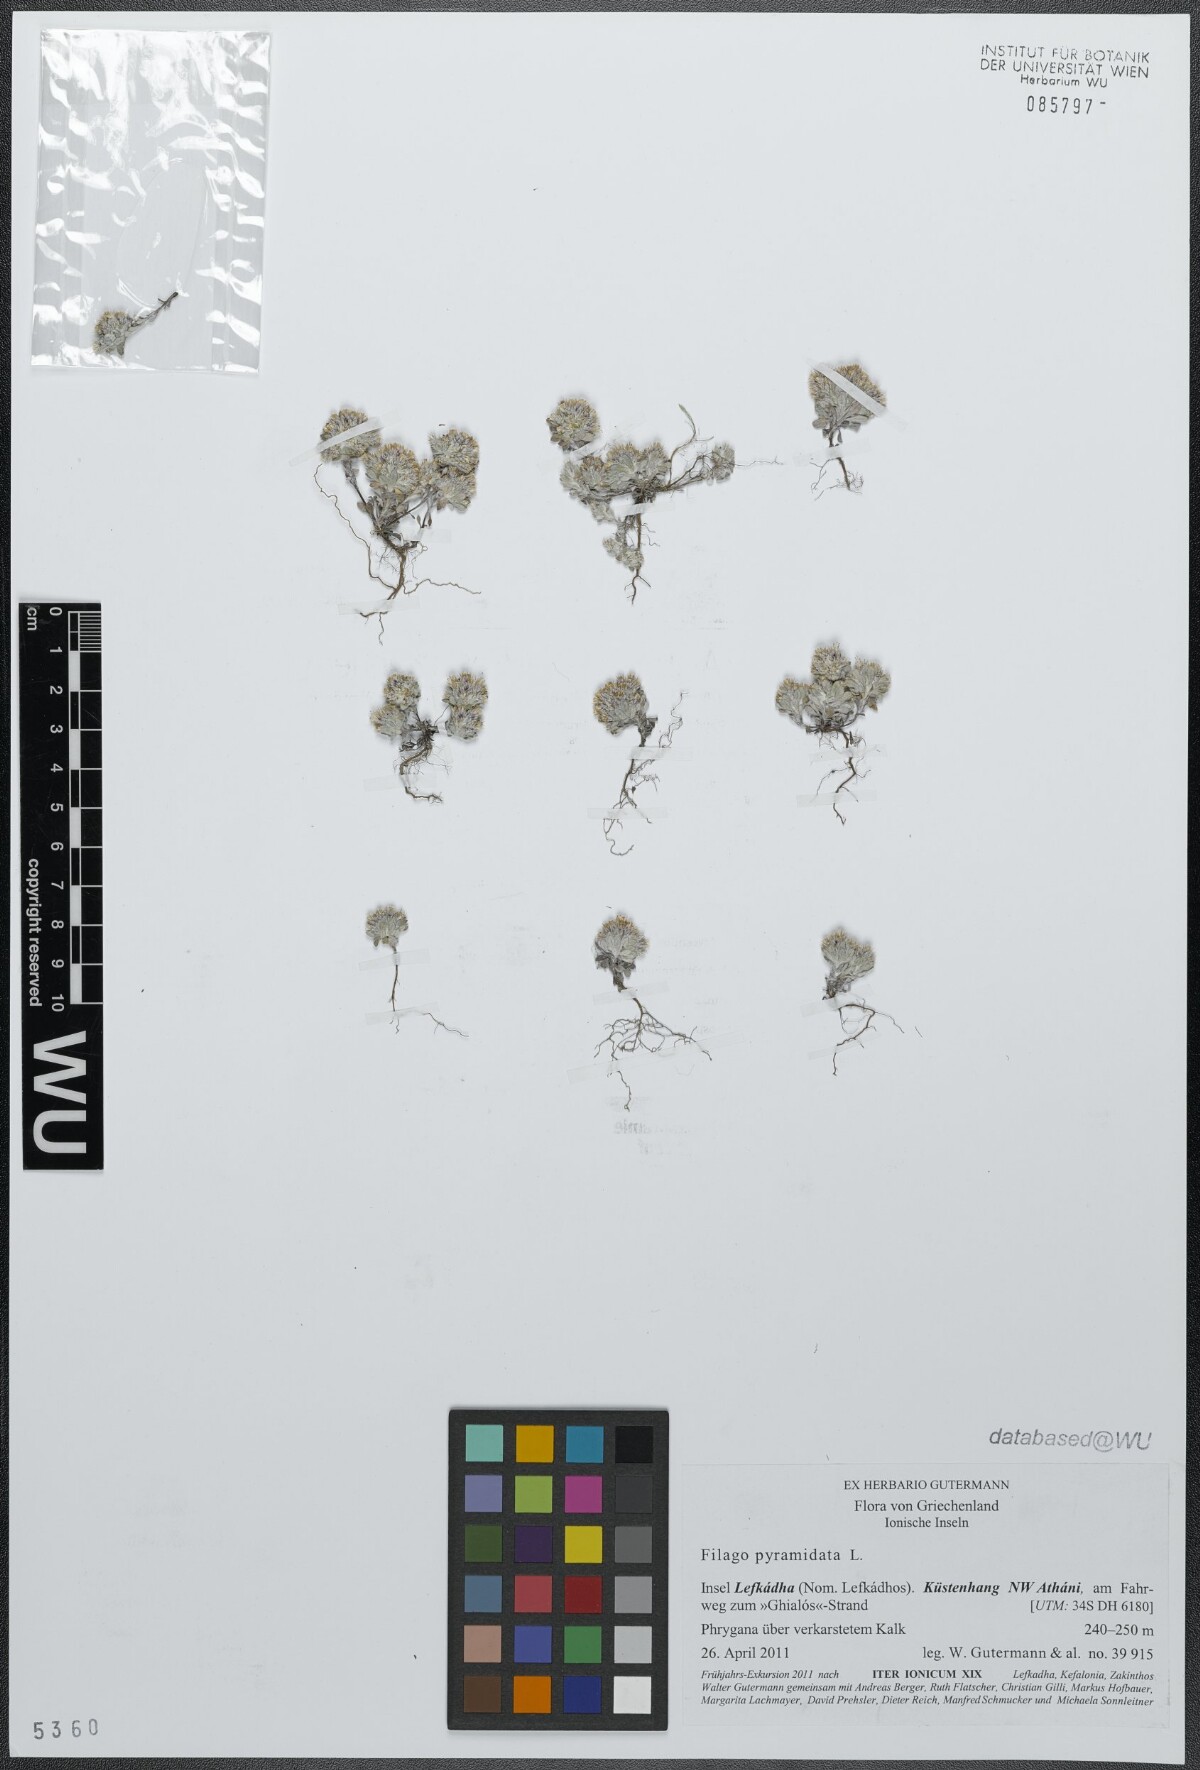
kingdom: Plantae
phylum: Tracheophyta
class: Magnoliopsida
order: Asterales
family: Asteraceae
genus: Filago
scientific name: Filago pyramidata
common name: Broad-leaved cudweed
